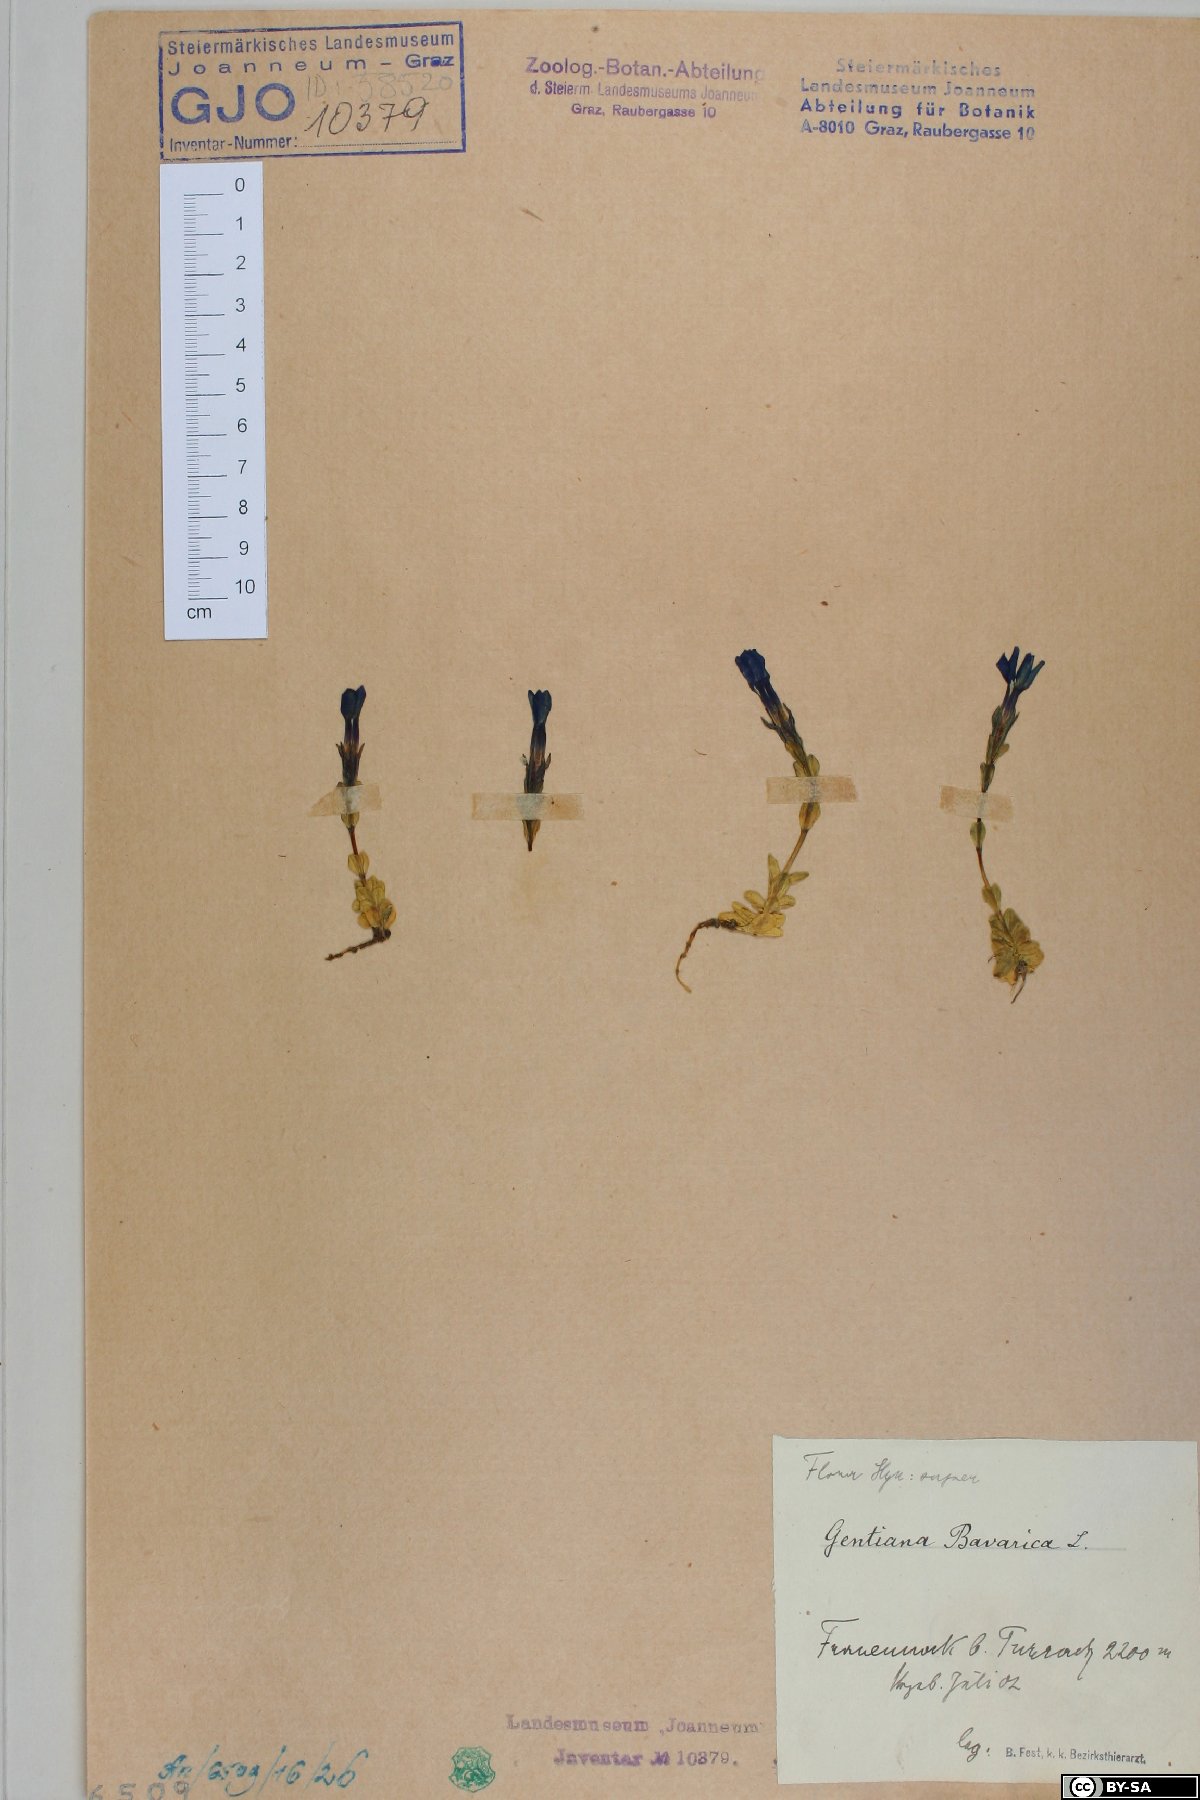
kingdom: Plantae
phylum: Tracheophyta
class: Magnoliopsida
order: Gentianales
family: Gentianaceae
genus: Gentiana
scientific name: Gentiana bavarica
